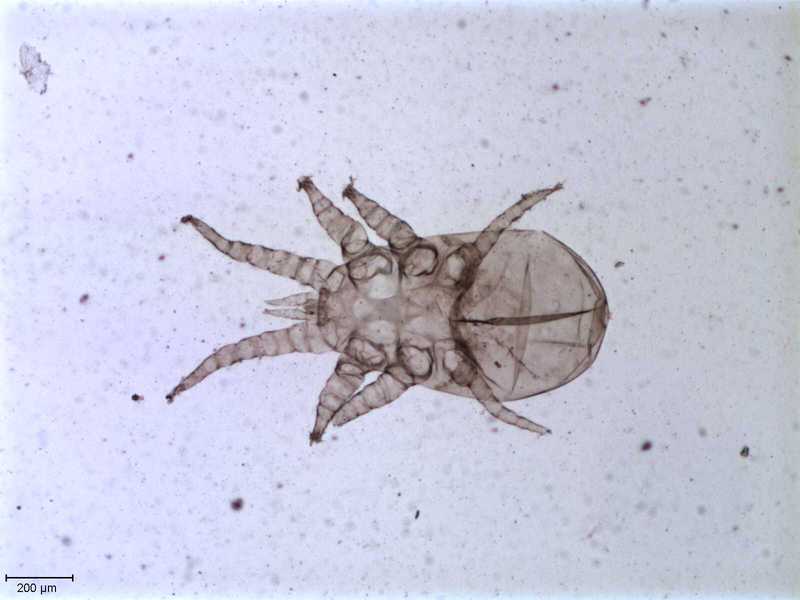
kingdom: Animalia
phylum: Arthropoda
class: Arachnida
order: Mesostigmata
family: Halarachnidae
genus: Orthohalarachne
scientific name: Orthohalarachne letalis
